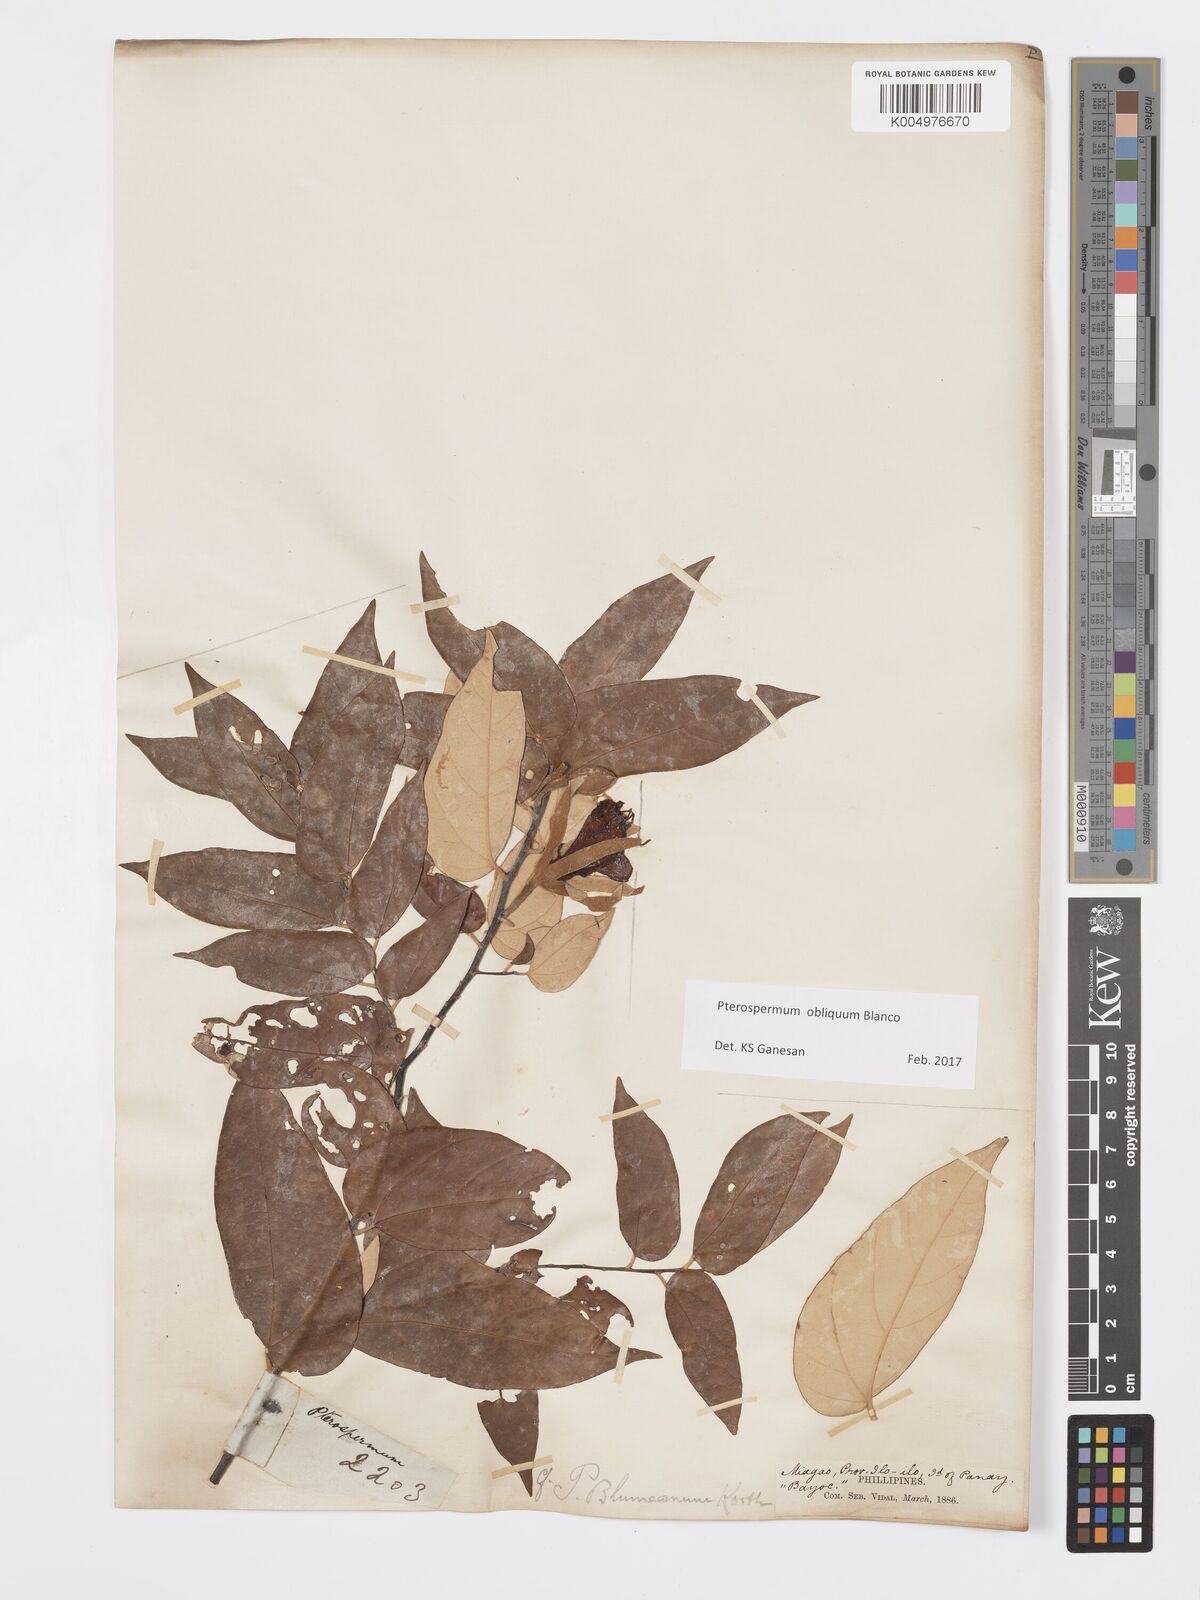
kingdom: Plantae
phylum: Tracheophyta
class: Magnoliopsida
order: Malvales
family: Malvaceae
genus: Pterospermum
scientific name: Pterospermum obliquum
